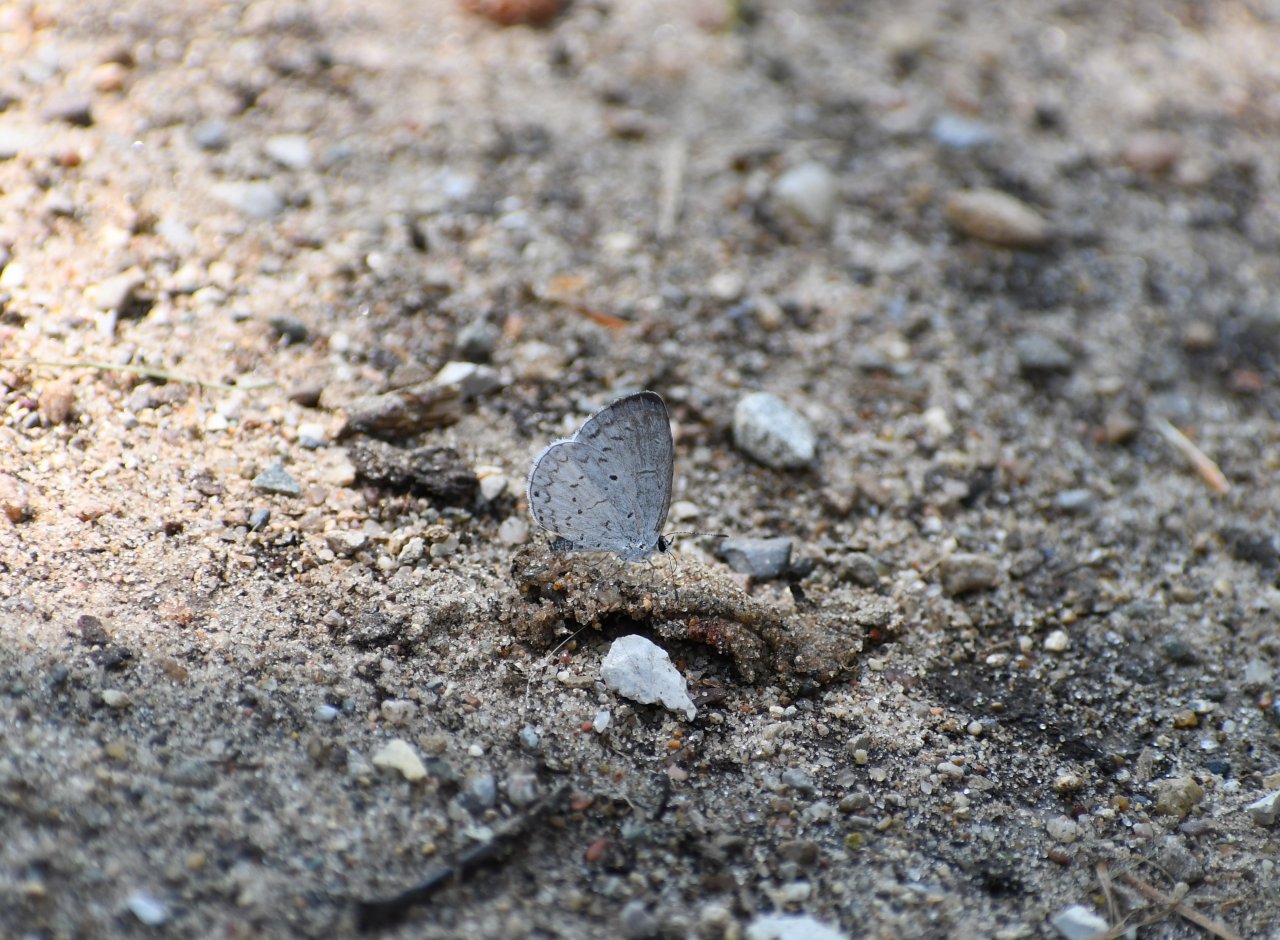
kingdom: Animalia
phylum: Arthropoda
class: Insecta
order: Lepidoptera
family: Lycaenidae
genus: Celastrina
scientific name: Celastrina
